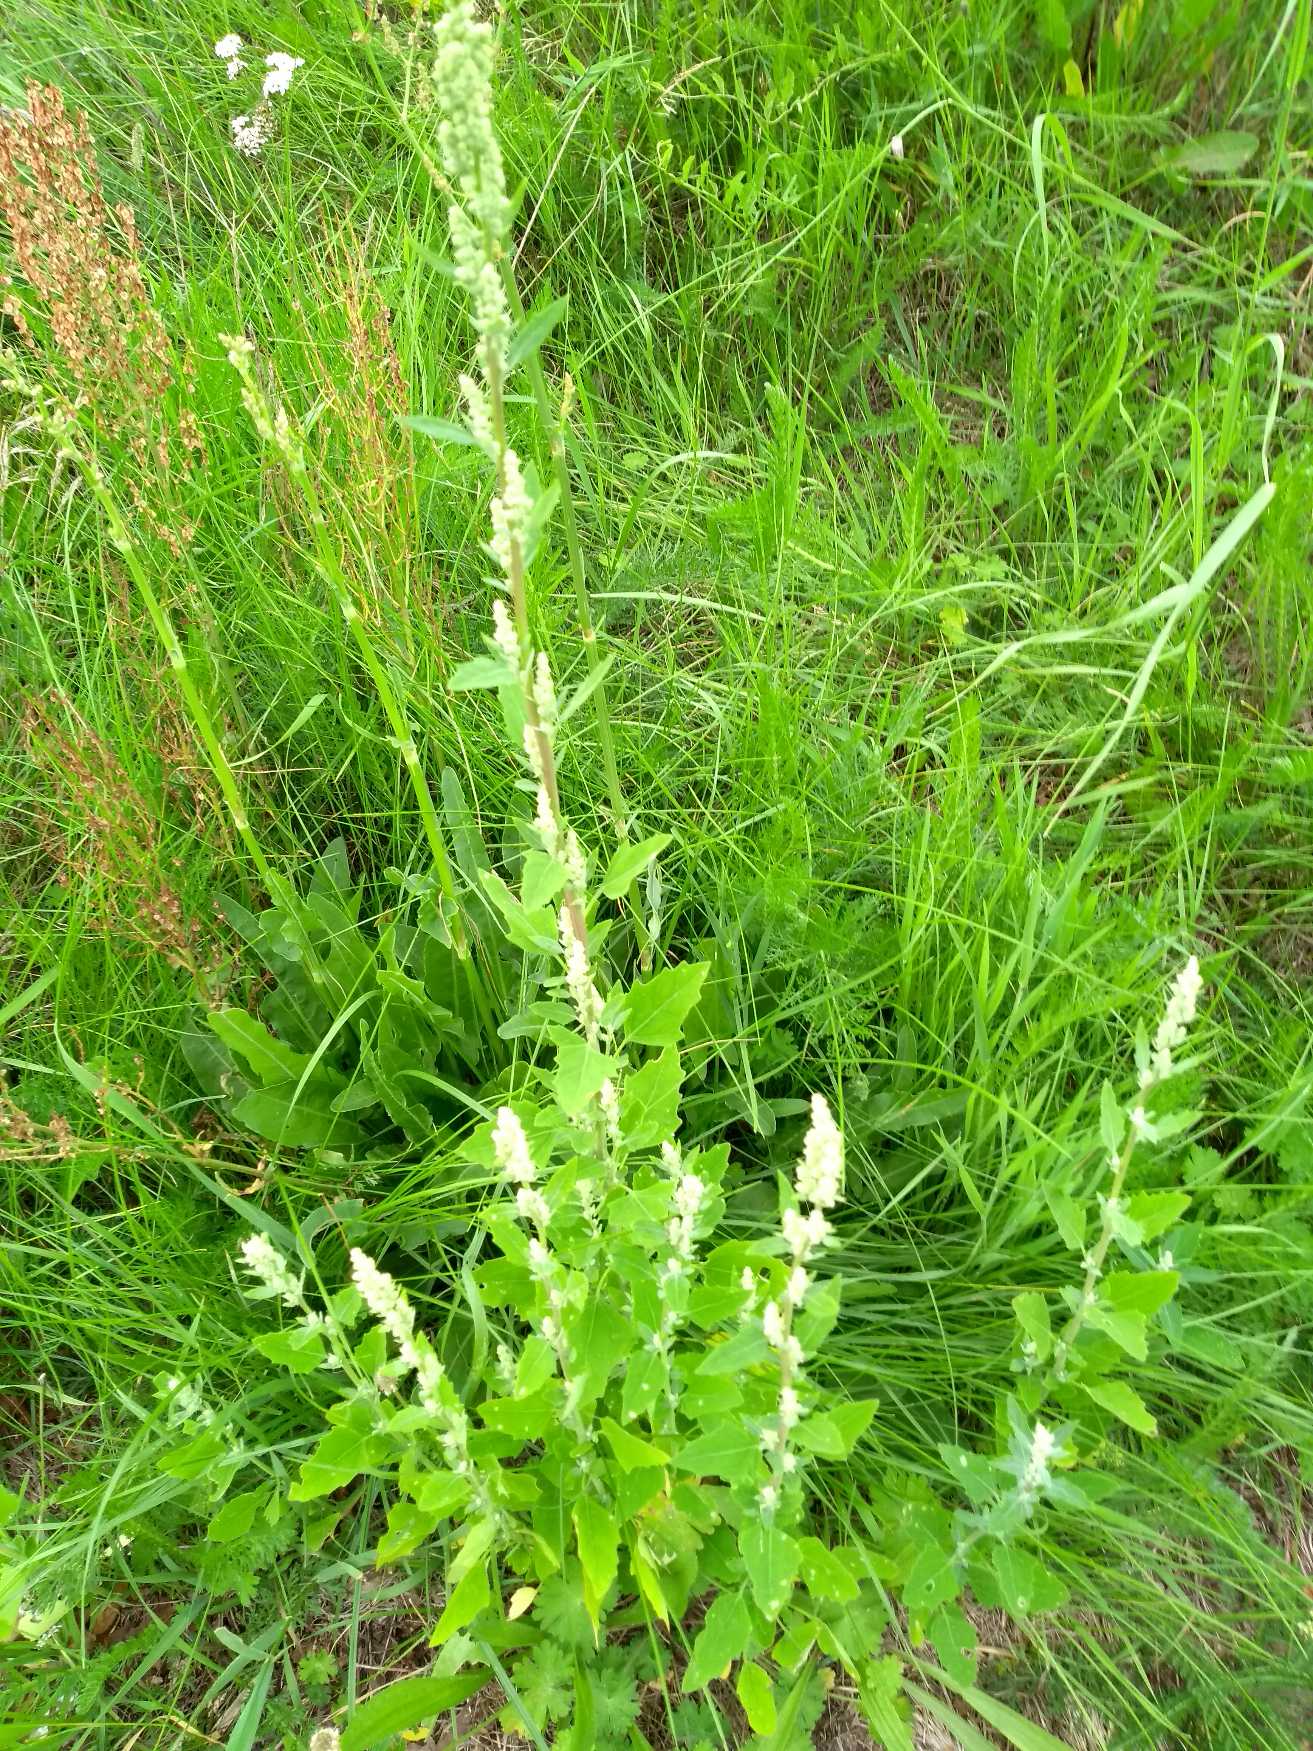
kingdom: Plantae
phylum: Tracheophyta
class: Magnoliopsida
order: Caryophyllales
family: Amaranthaceae
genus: Chenopodium
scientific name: Chenopodium album
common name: Hvidmelet gåsefod
